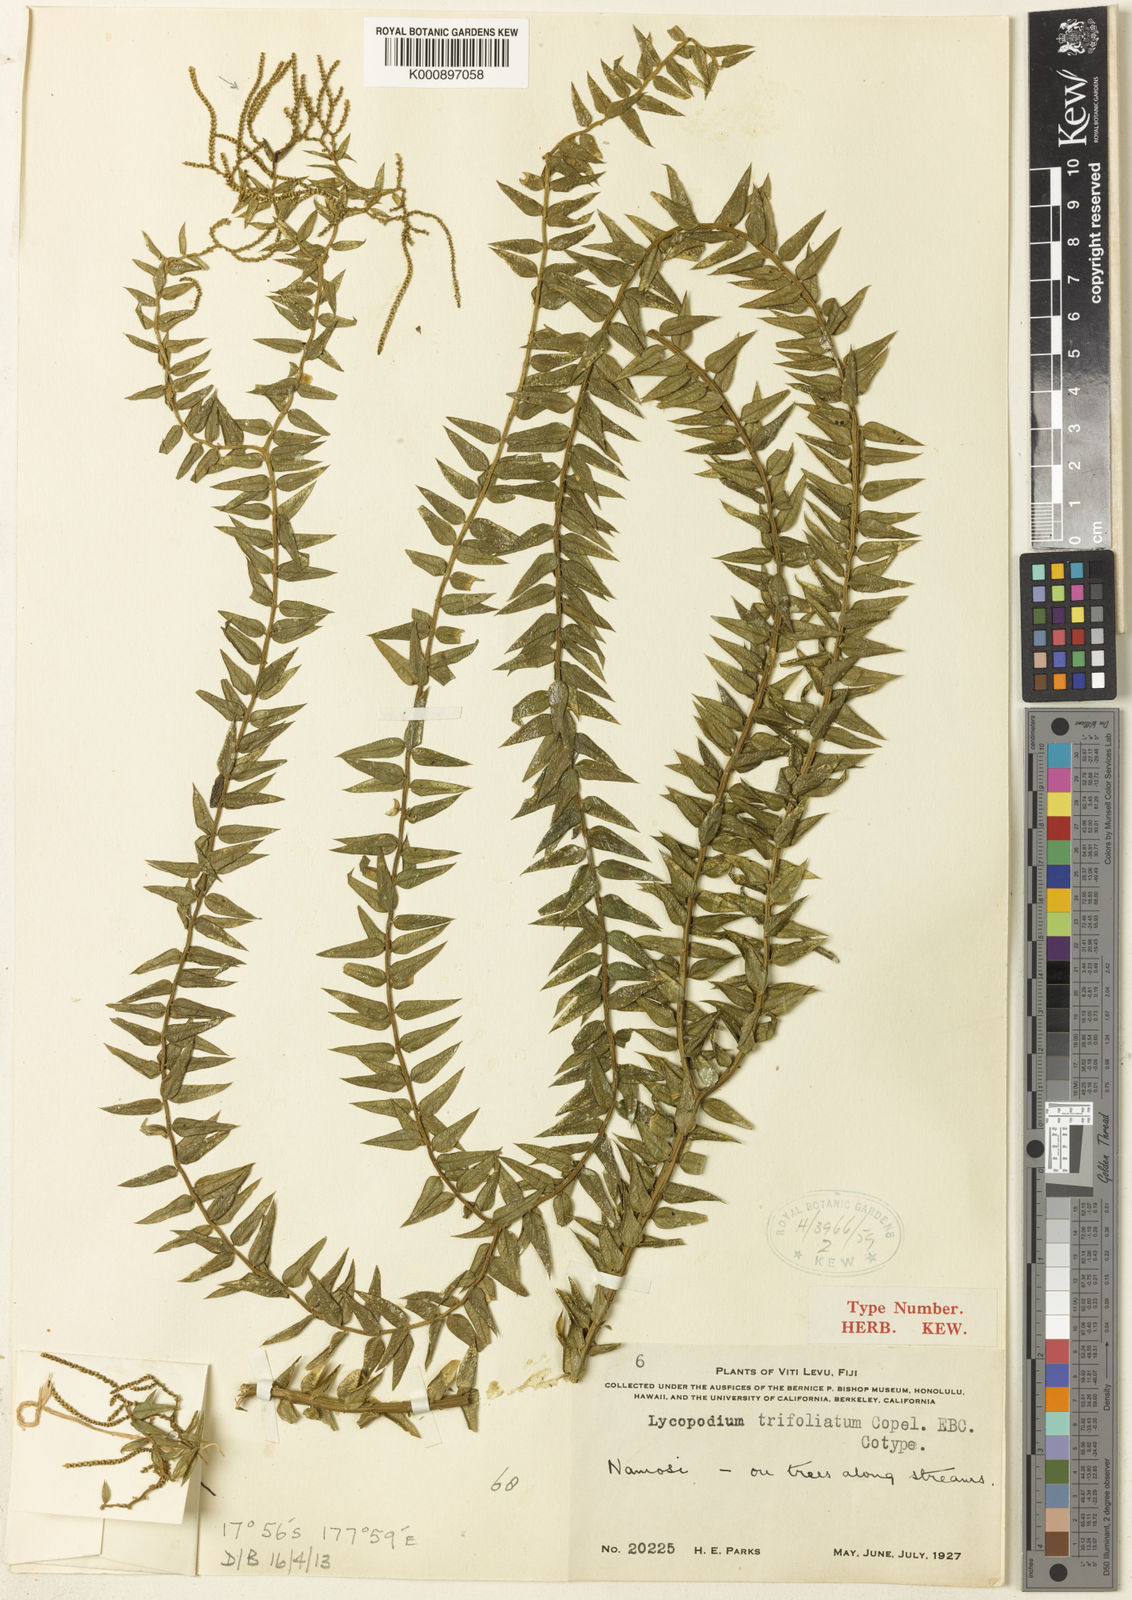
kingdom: Plantae
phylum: Tracheophyta
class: Lycopodiopsida
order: Lycopodiales
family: Lycopodiaceae
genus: Phlegmariurus
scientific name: Phlegmariurus trifoliatus
